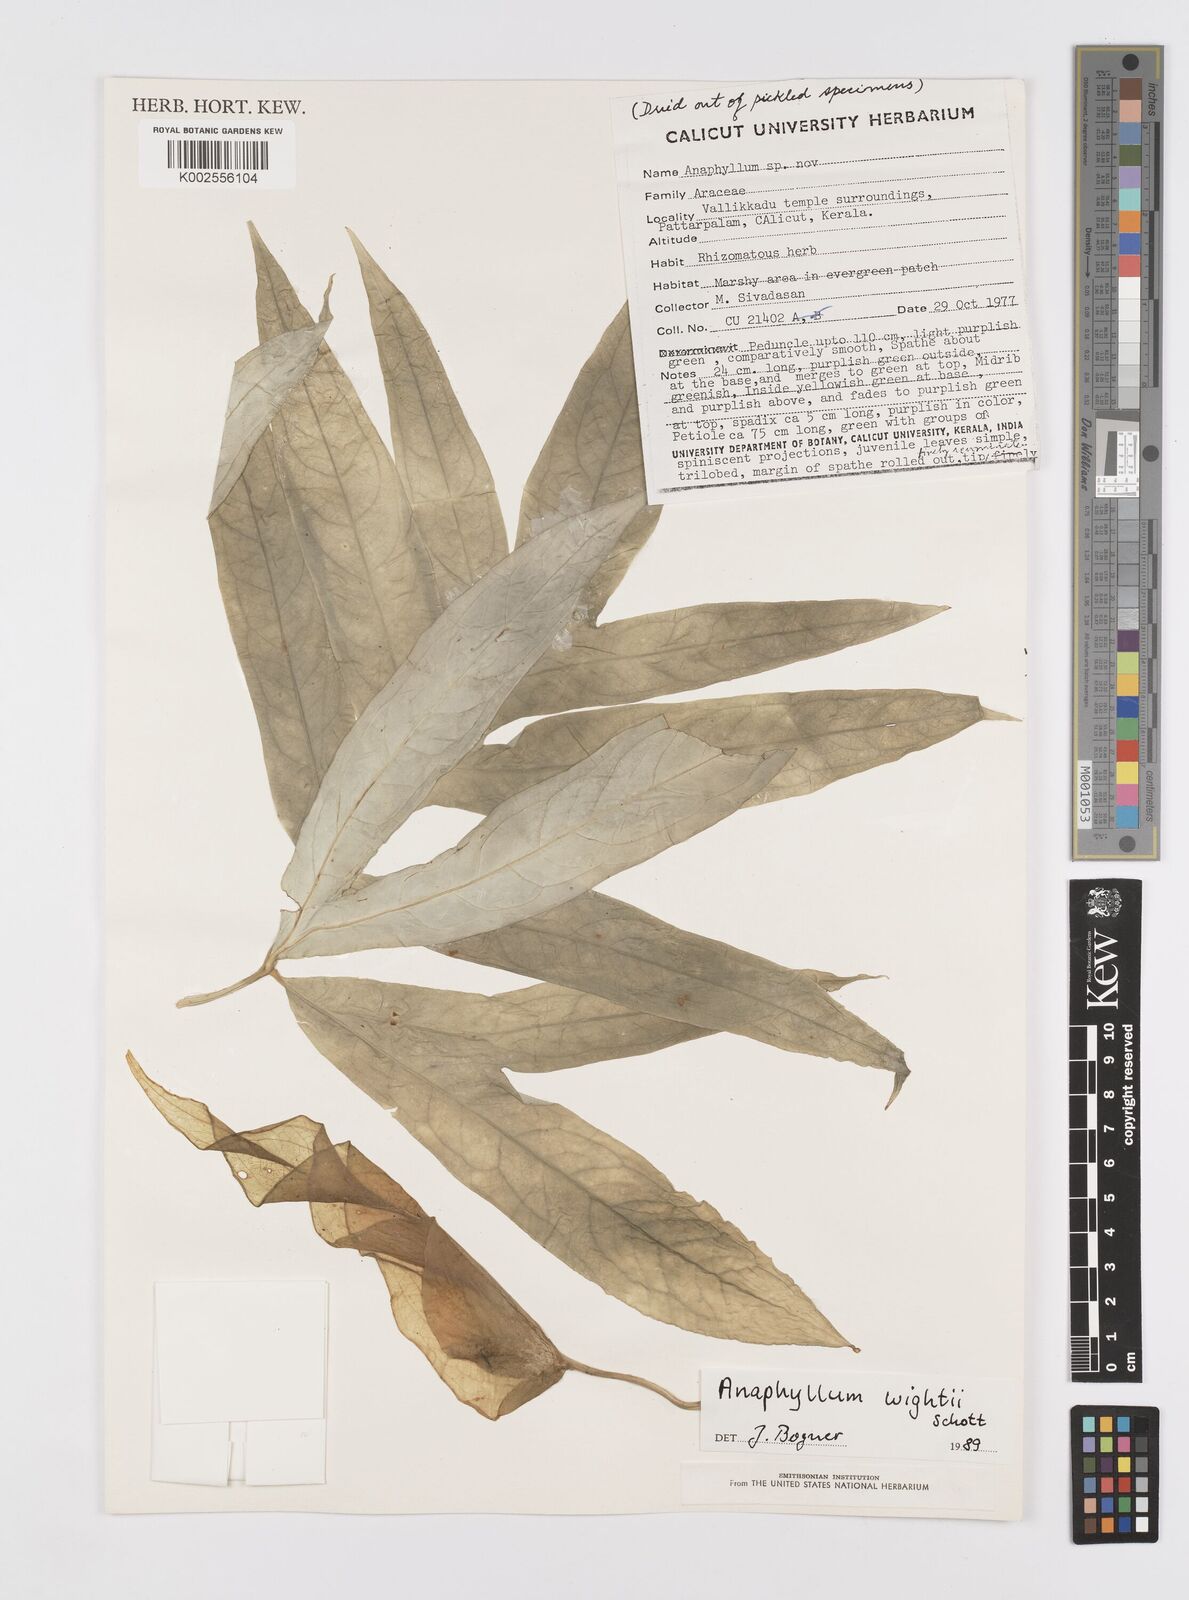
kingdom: Plantae
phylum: Tracheophyta
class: Liliopsida
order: Alismatales
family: Araceae
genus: Anaphyllum
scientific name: Anaphyllum wightii
